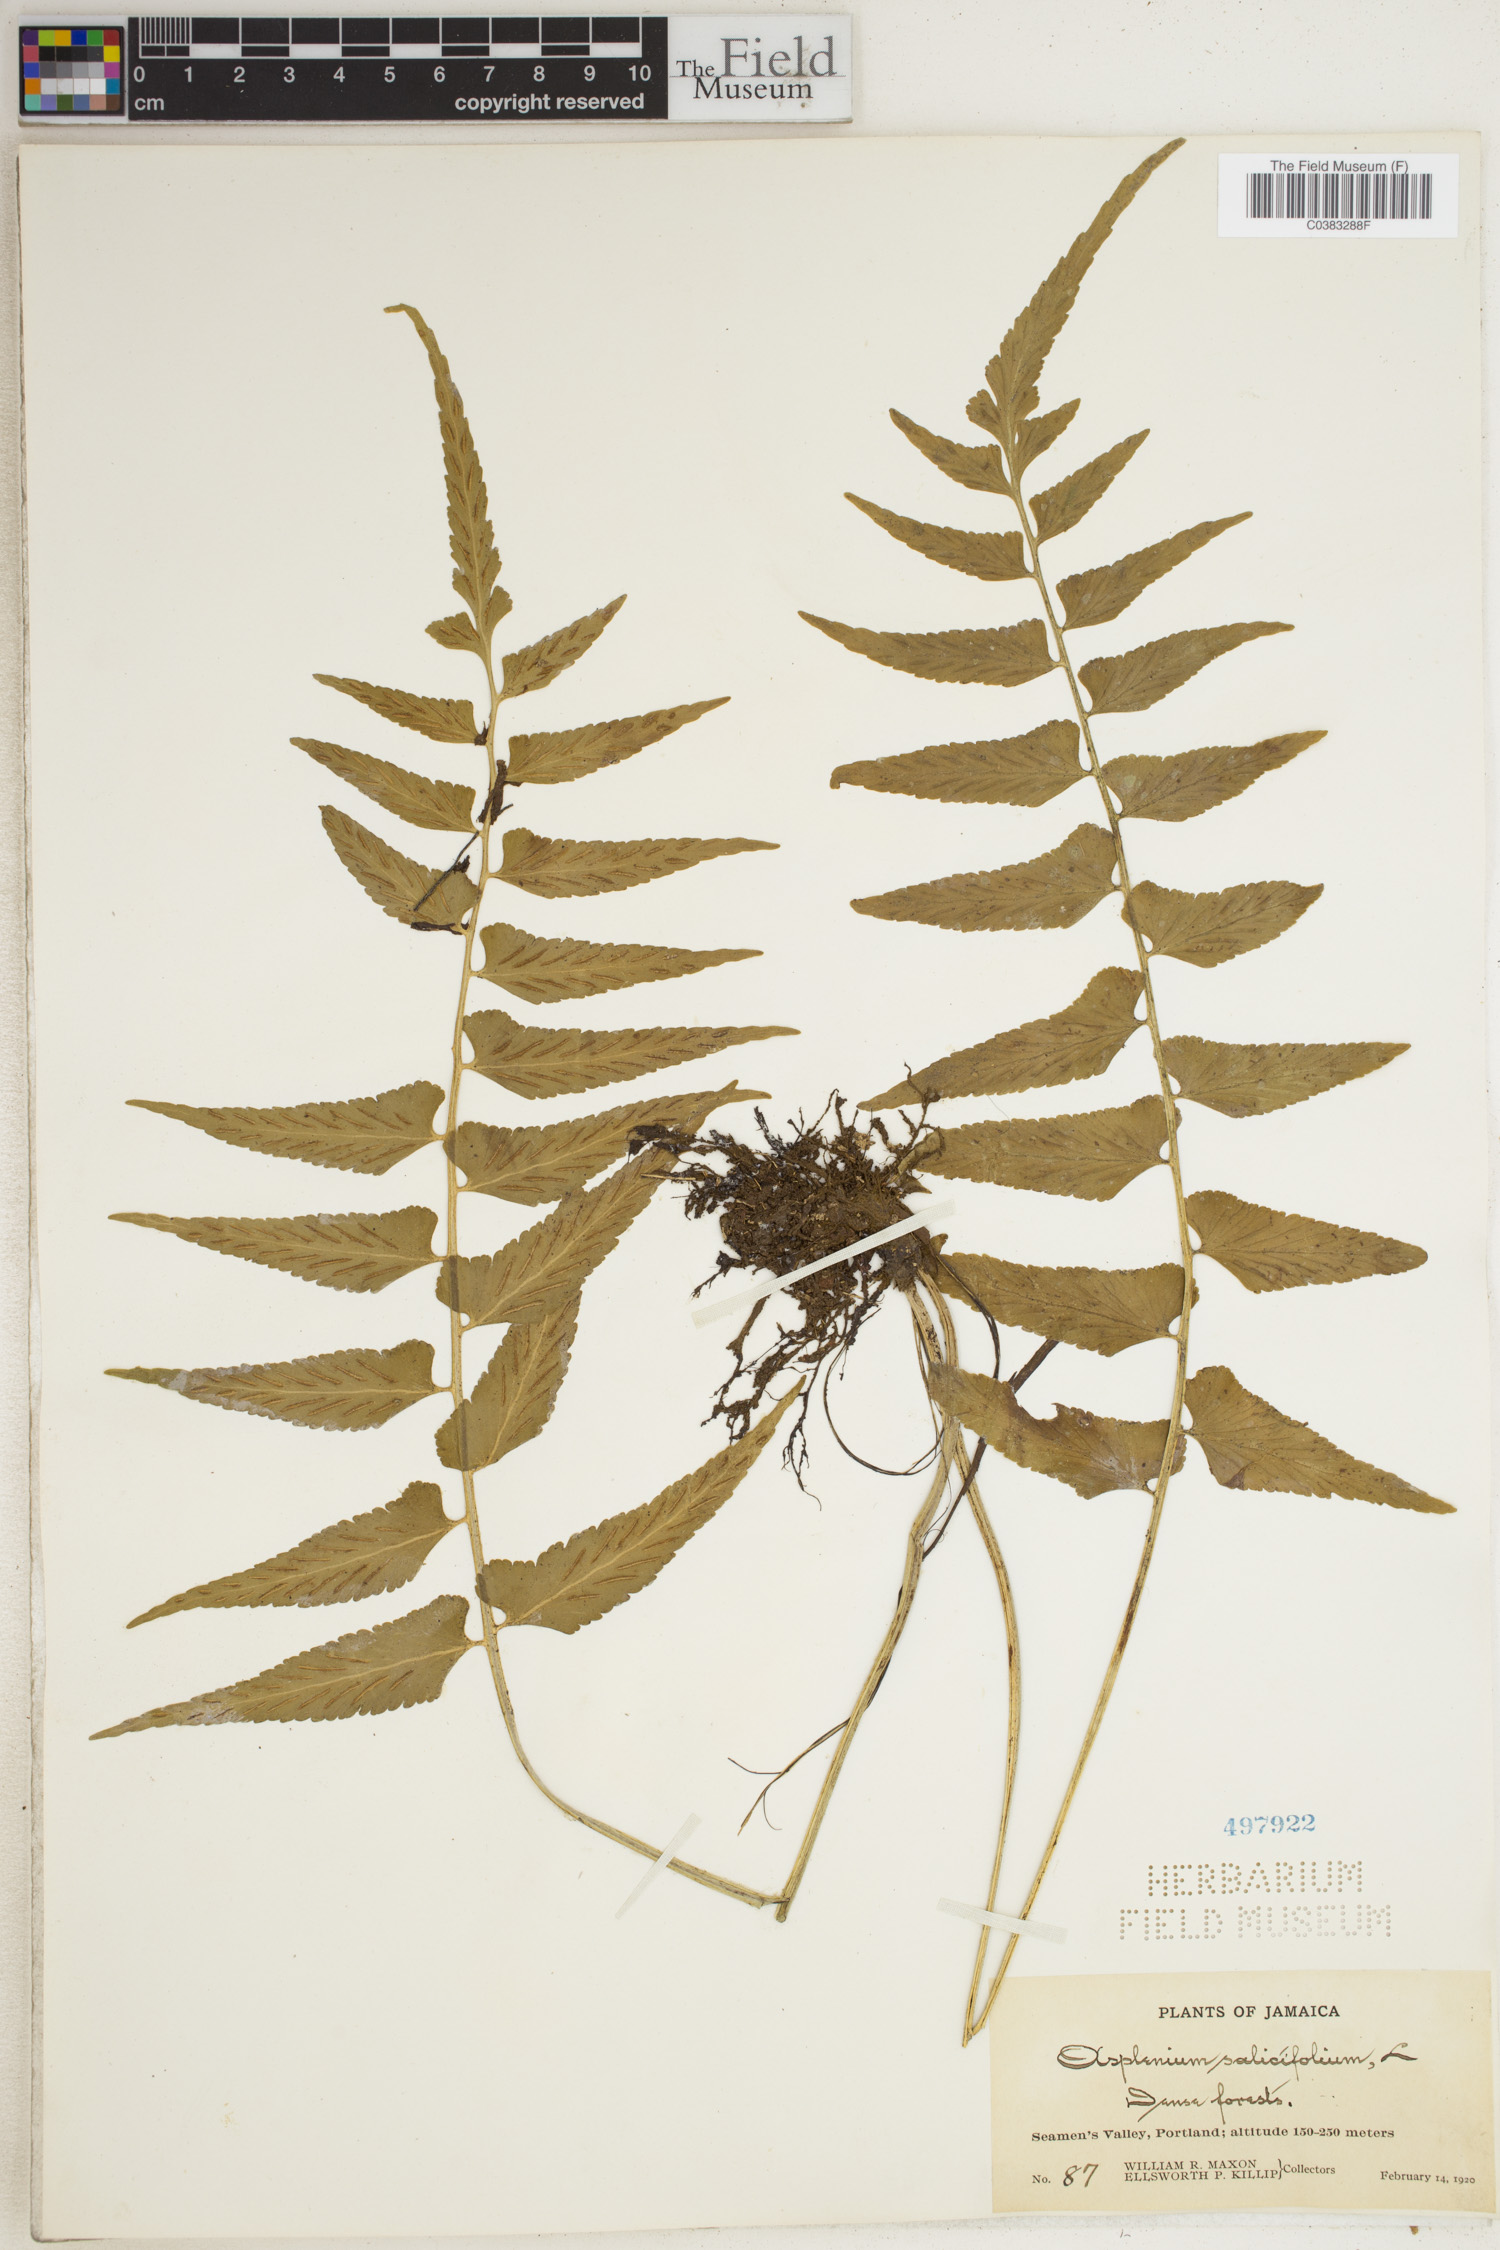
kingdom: Plantae
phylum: Tracheophyta
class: Polypodiopsida
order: Polypodiales
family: Aspleniaceae
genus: Asplenium
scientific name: Asplenium salicifolium
